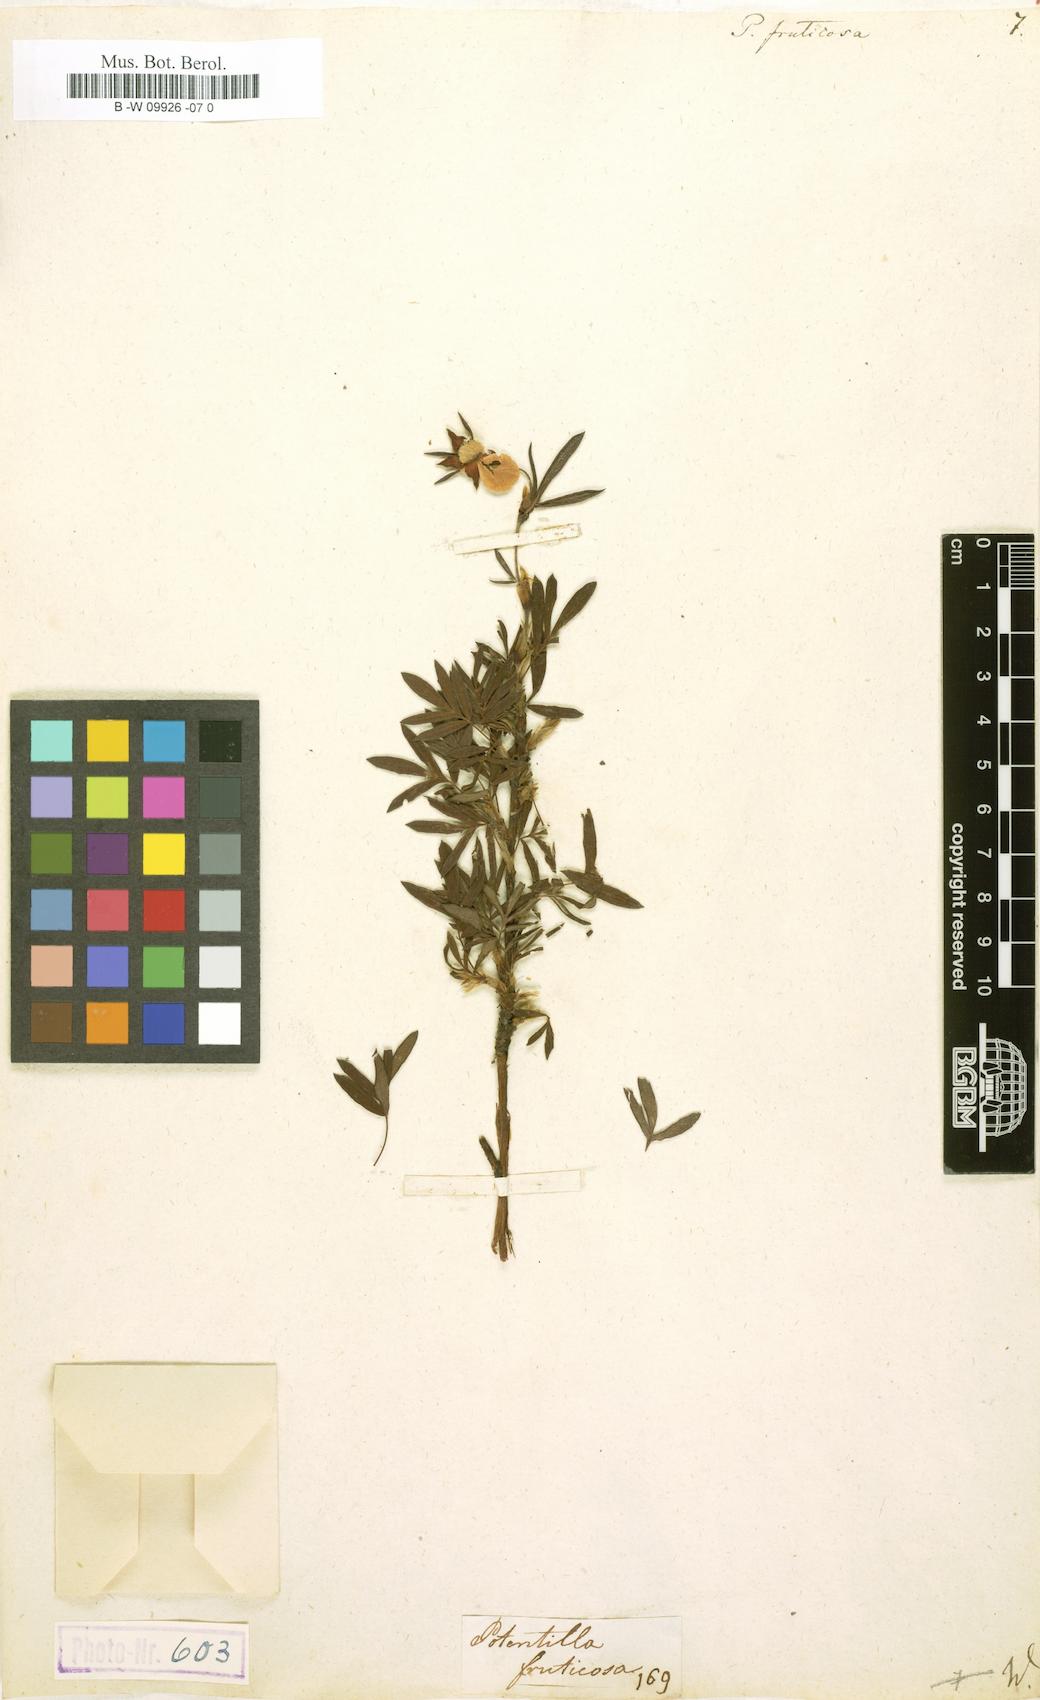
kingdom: Plantae
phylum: Tracheophyta
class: Magnoliopsida
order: Rosales
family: Rosaceae
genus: Dasiphora
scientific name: Dasiphora fruticosa
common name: Shrubby cinquefoil
